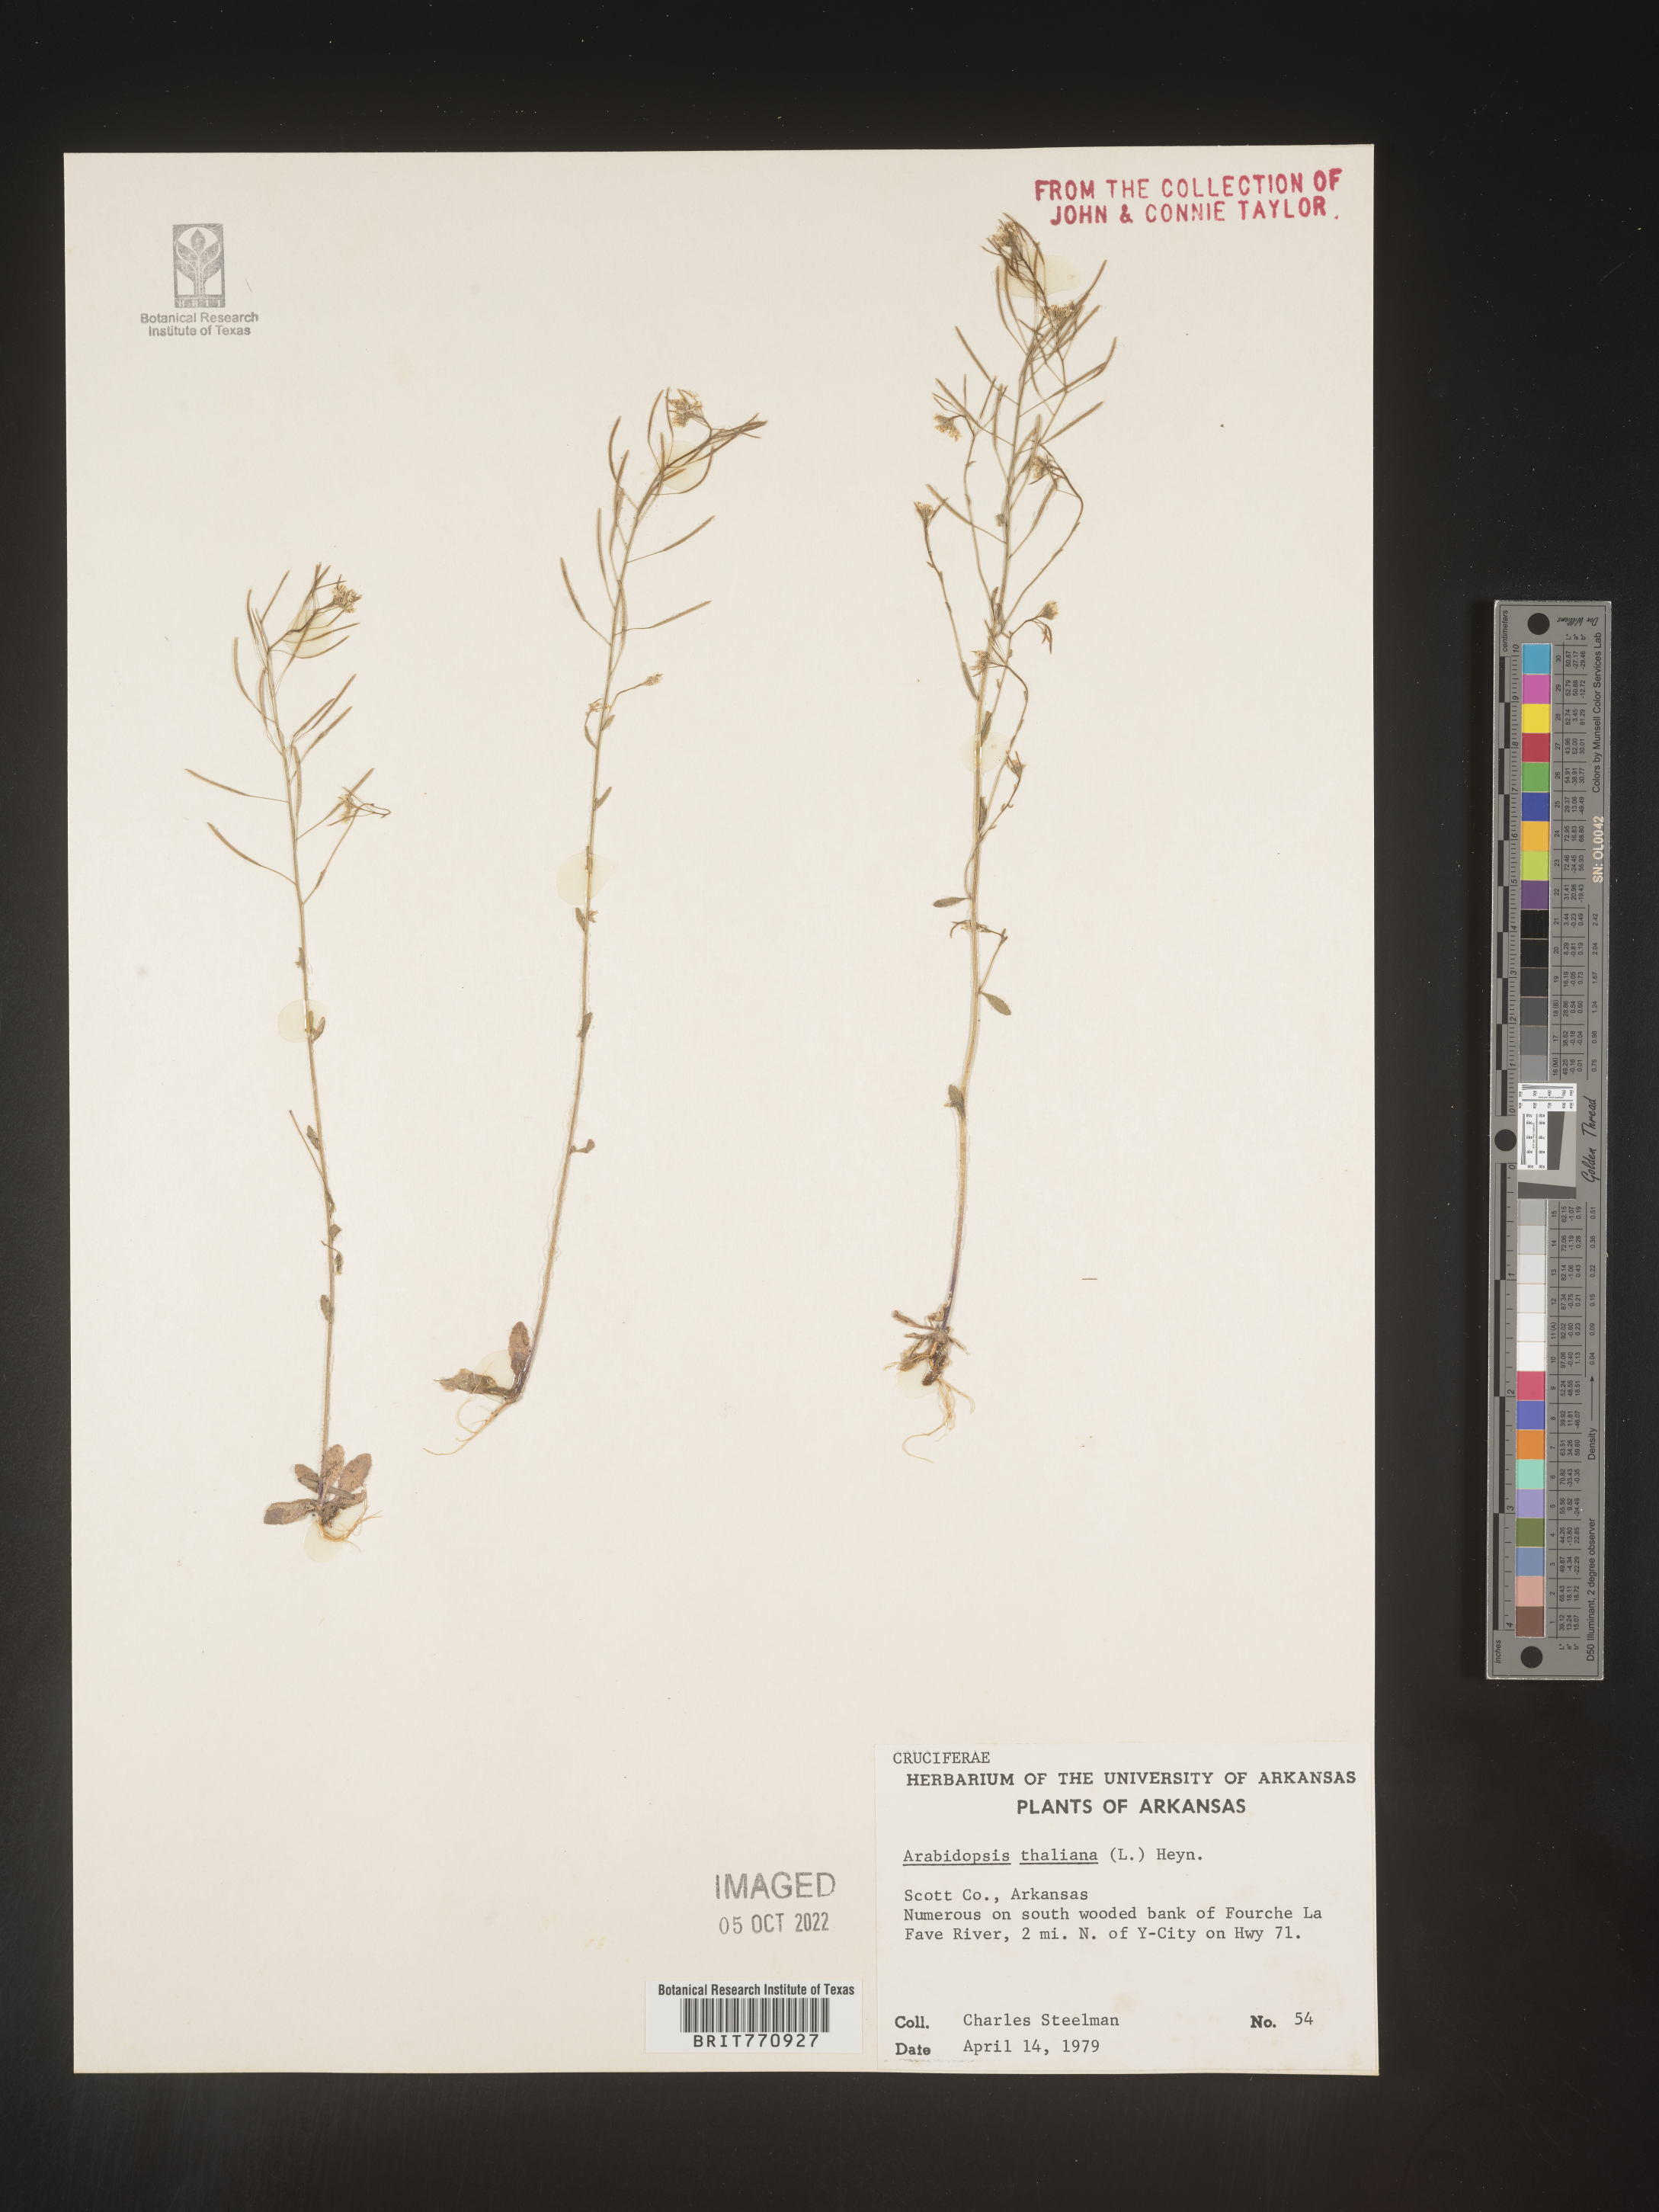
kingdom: Plantae
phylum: Tracheophyta
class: Magnoliopsida
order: Brassicales
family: Brassicaceae
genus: Arabidopsis
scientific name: Arabidopsis thaliana
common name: Thale cress
